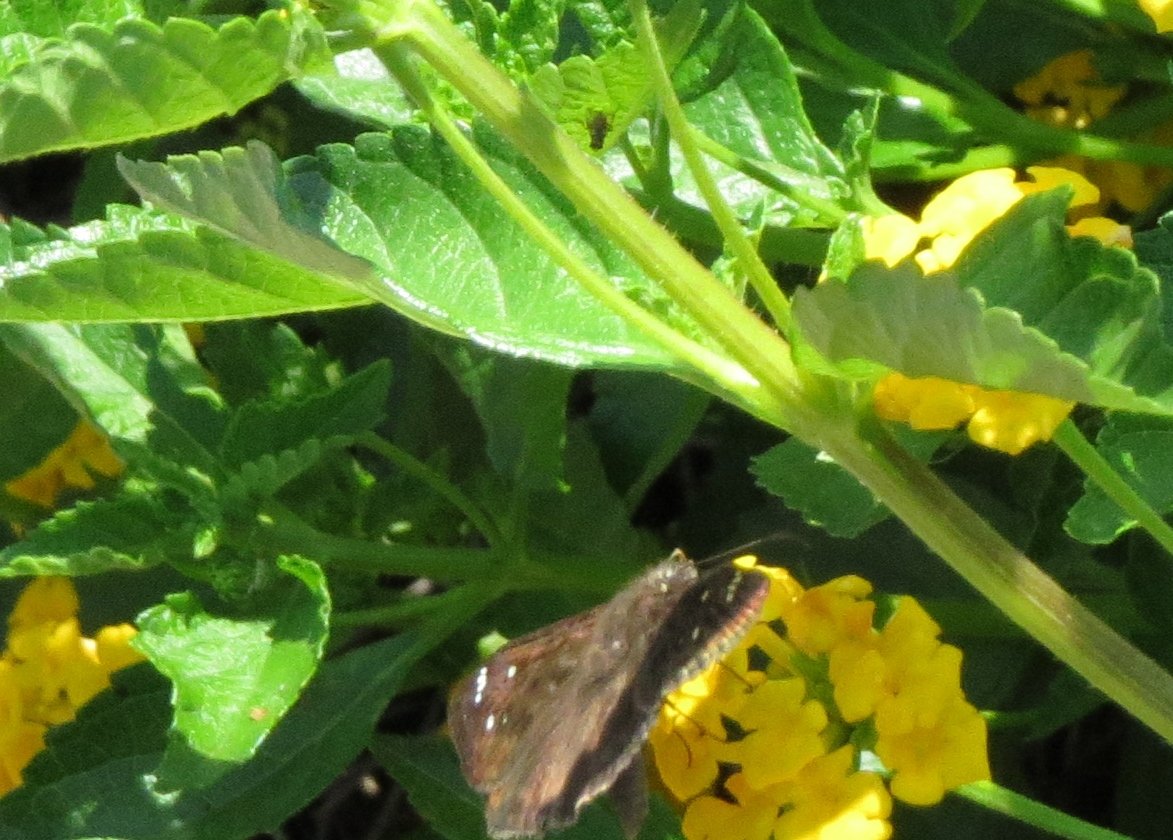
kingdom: Animalia
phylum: Arthropoda
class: Insecta
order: Lepidoptera
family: Hesperiidae
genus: Gesta
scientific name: Gesta
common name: Horace's Duskywing
